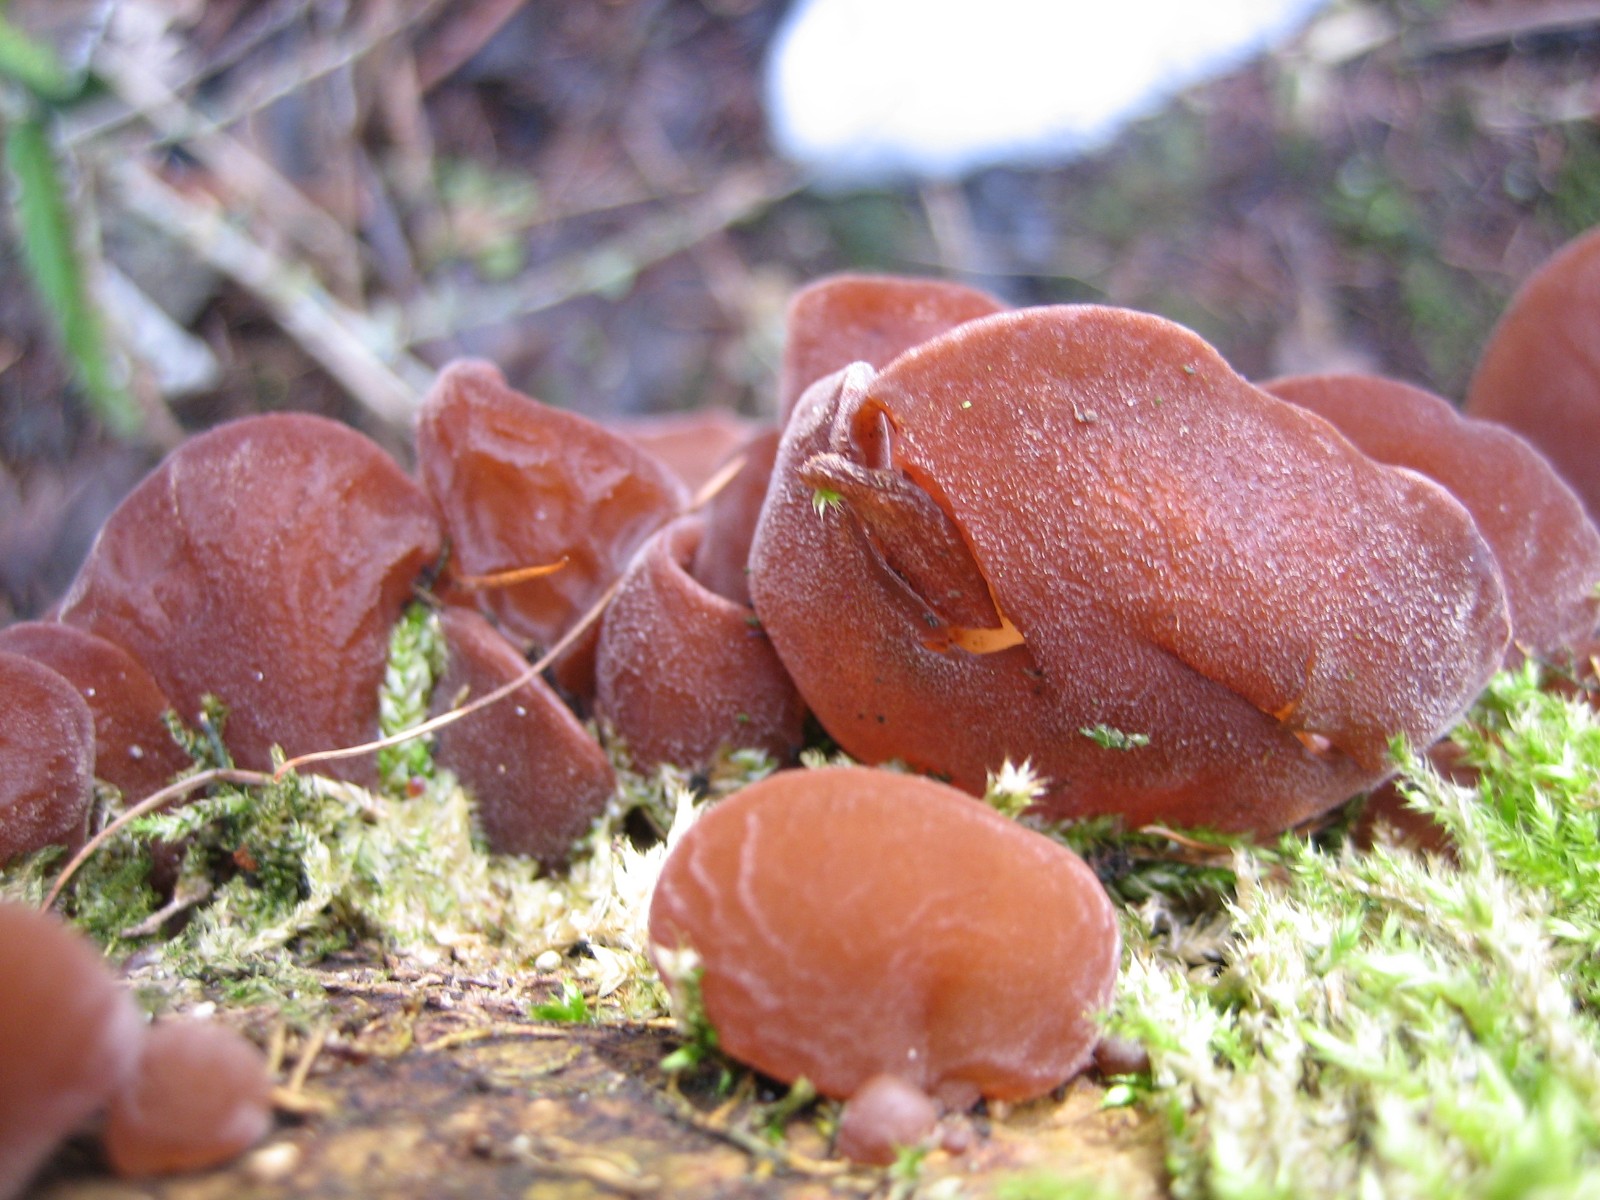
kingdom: Fungi
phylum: Basidiomycota
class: Agaricomycetes
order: Auriculariales
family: Auriculariaceae
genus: Auricularia
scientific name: Auricularia auricula-judae
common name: almindelig judasøre
